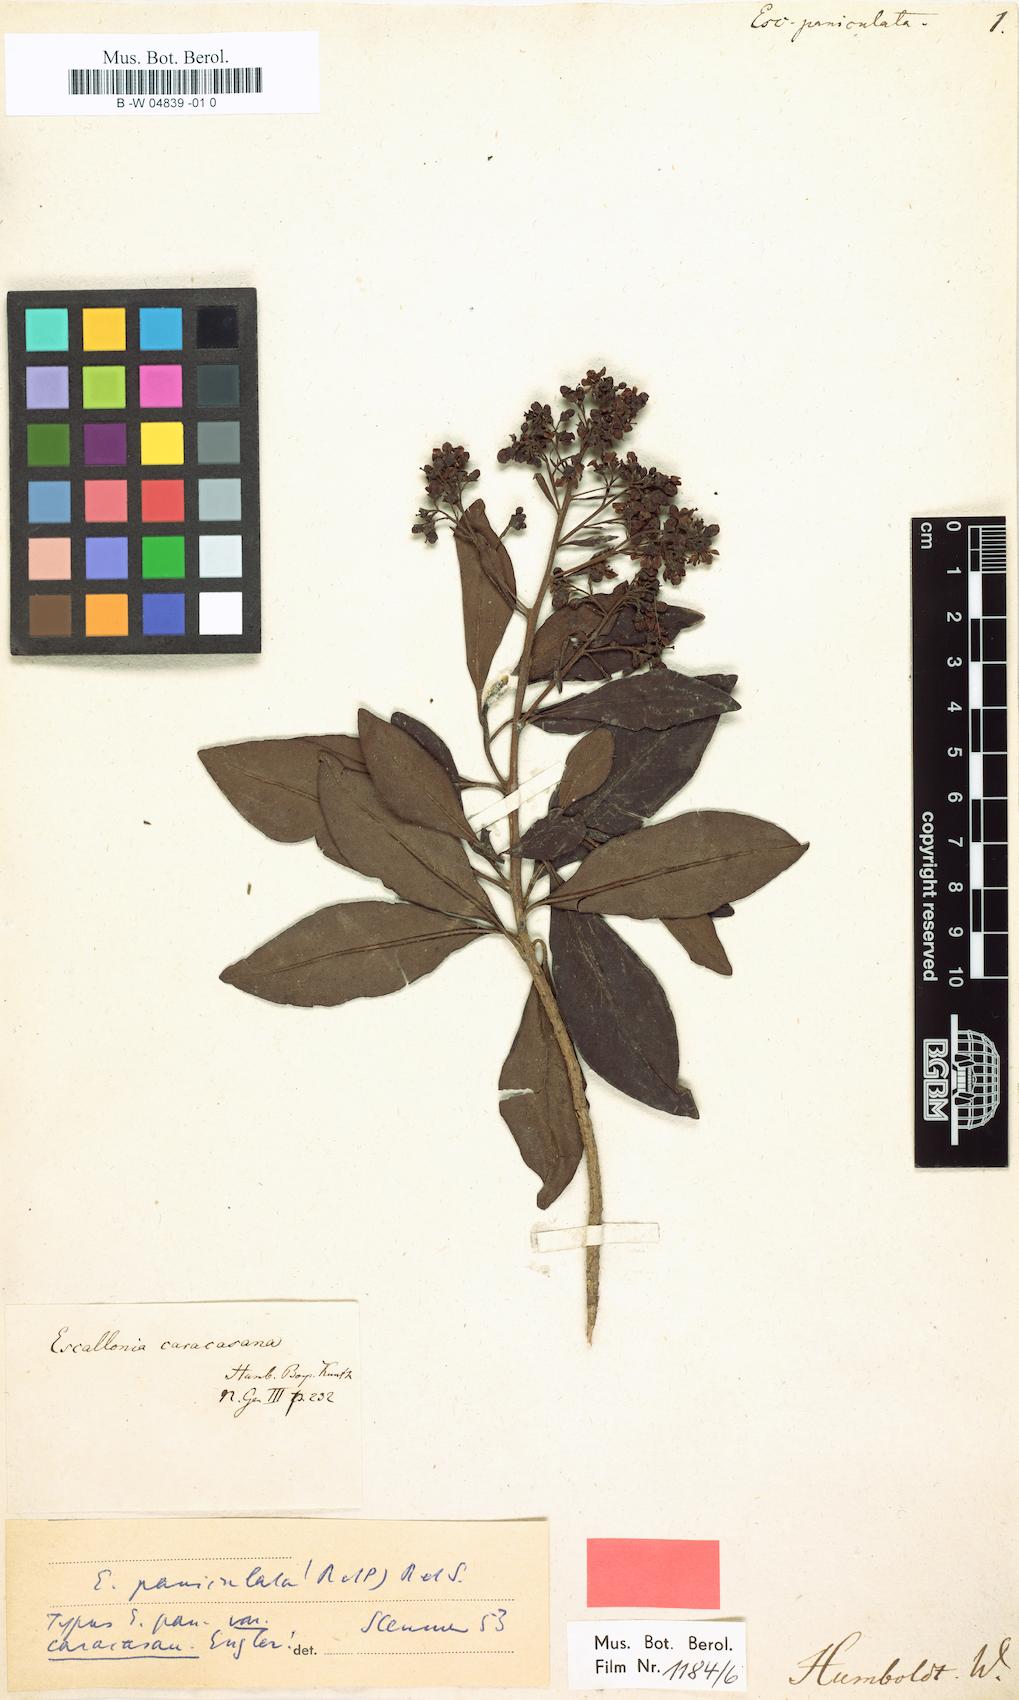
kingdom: Plantae
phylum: Tracheophyta
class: Magnoliopsida
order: Escalloniales
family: Escalloniaceae
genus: Escallonia
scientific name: Escallonia paniculata
